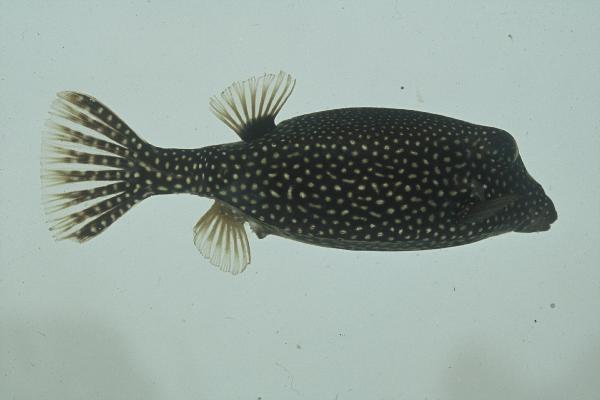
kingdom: Animalia
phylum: Chordata
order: Tetraodontiformes
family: Ostraciidae
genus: Ostracion
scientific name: Ostracion meleagris
